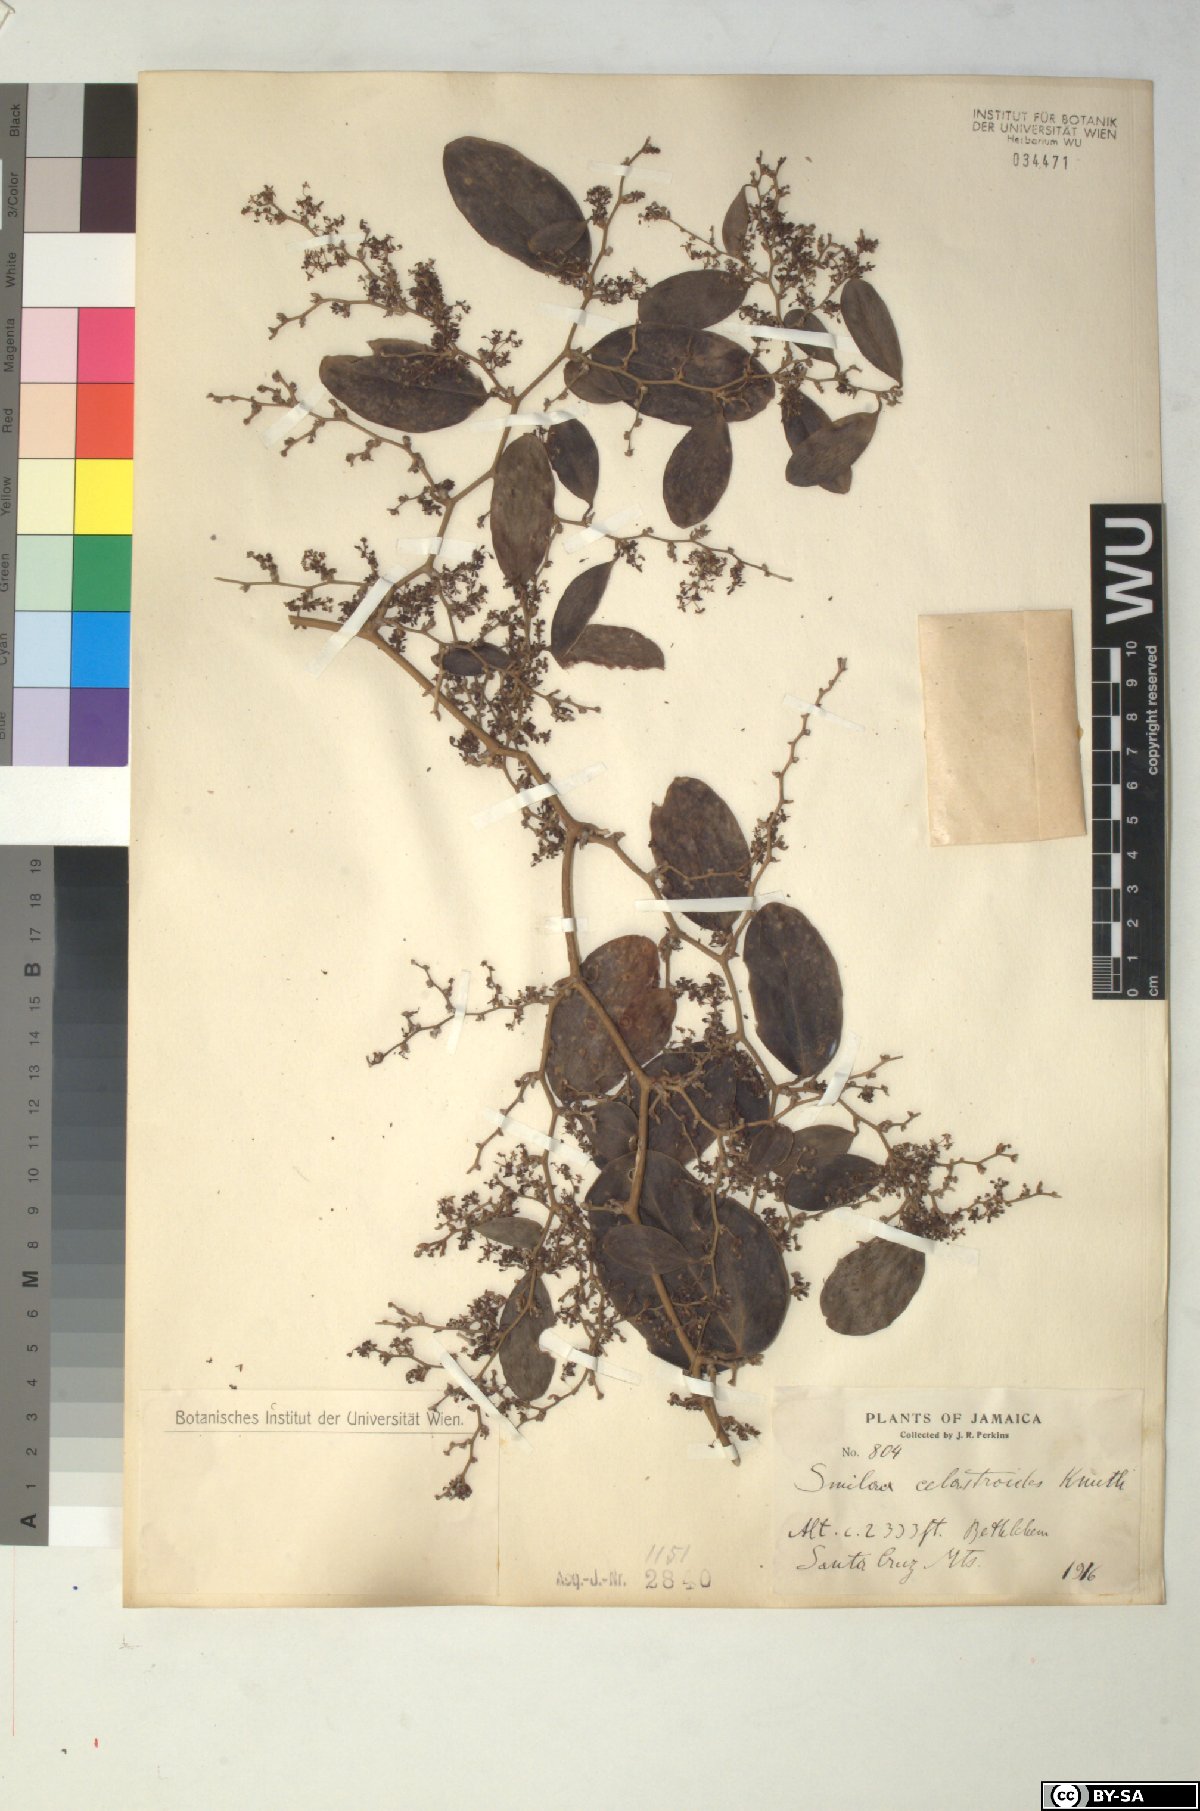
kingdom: Plantae
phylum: Tracheophyta
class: Liliopsida
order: Liliales
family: Smilacaceae
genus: Smilax
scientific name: Smilax canellifolia
